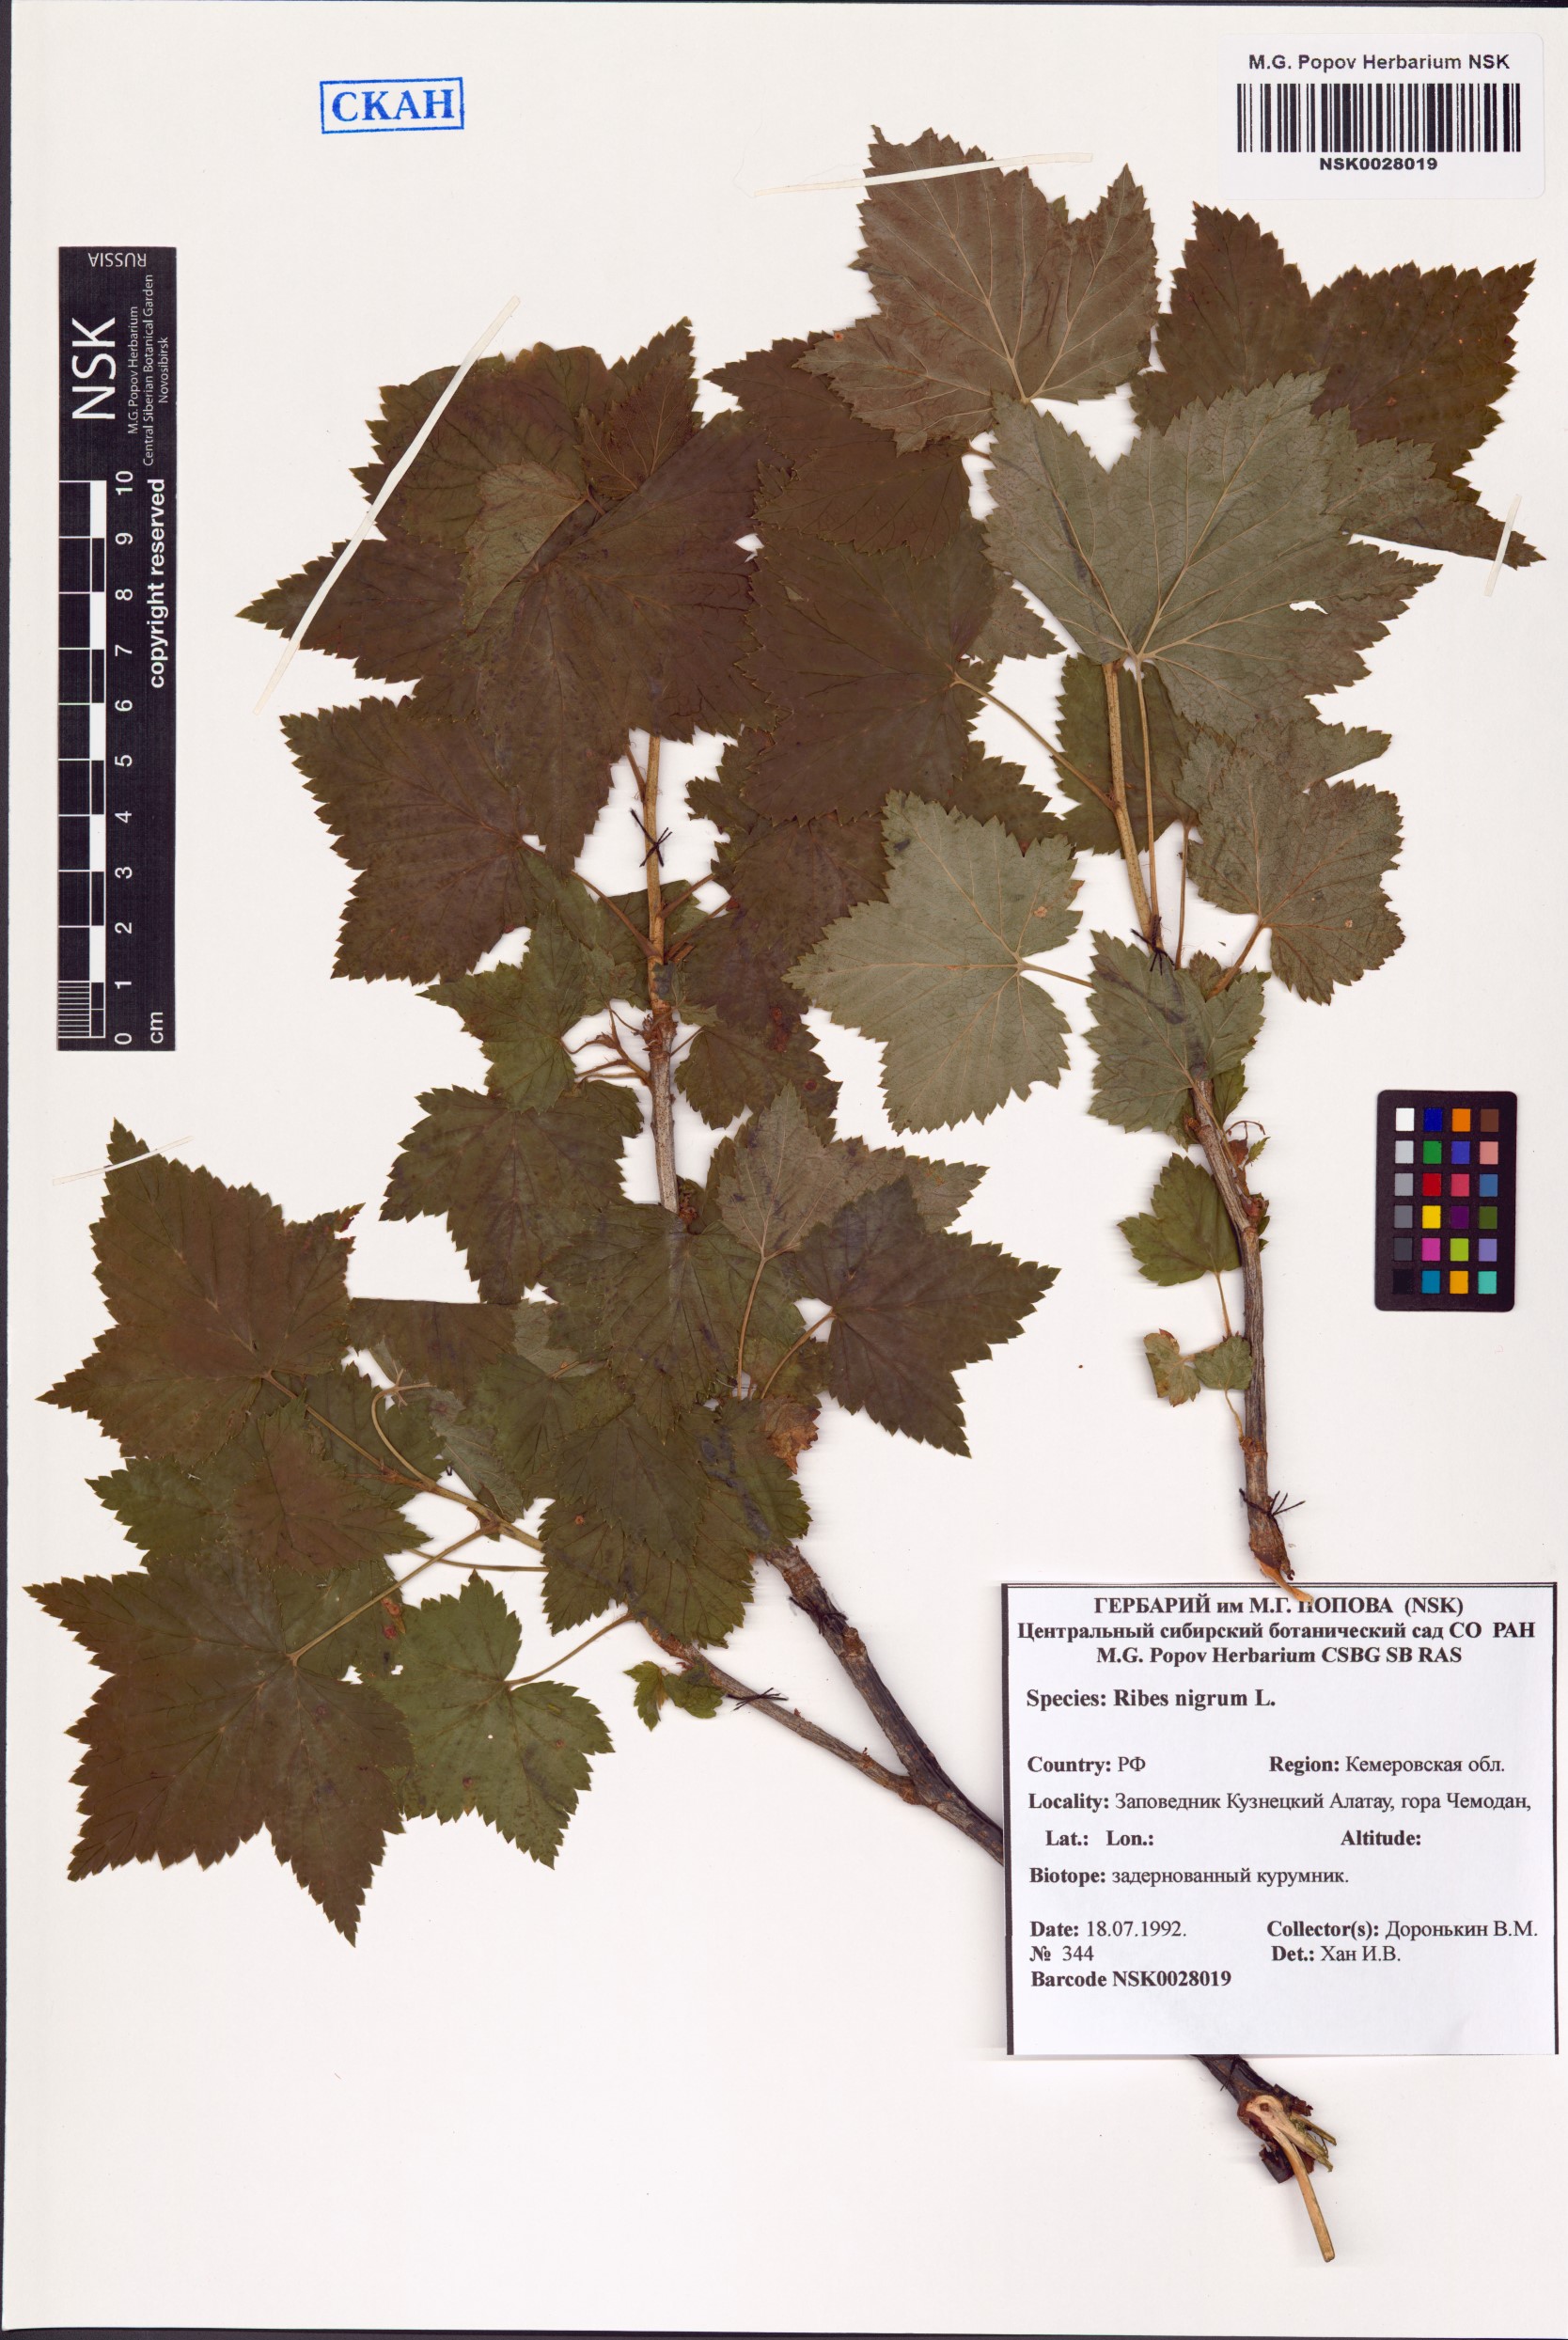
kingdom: Plantae
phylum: Tracheophyta
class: Magnoliopsida
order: Saxifragales
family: Grossulariaceae
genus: Ribes
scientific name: Ribes nigrum
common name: Black currant
